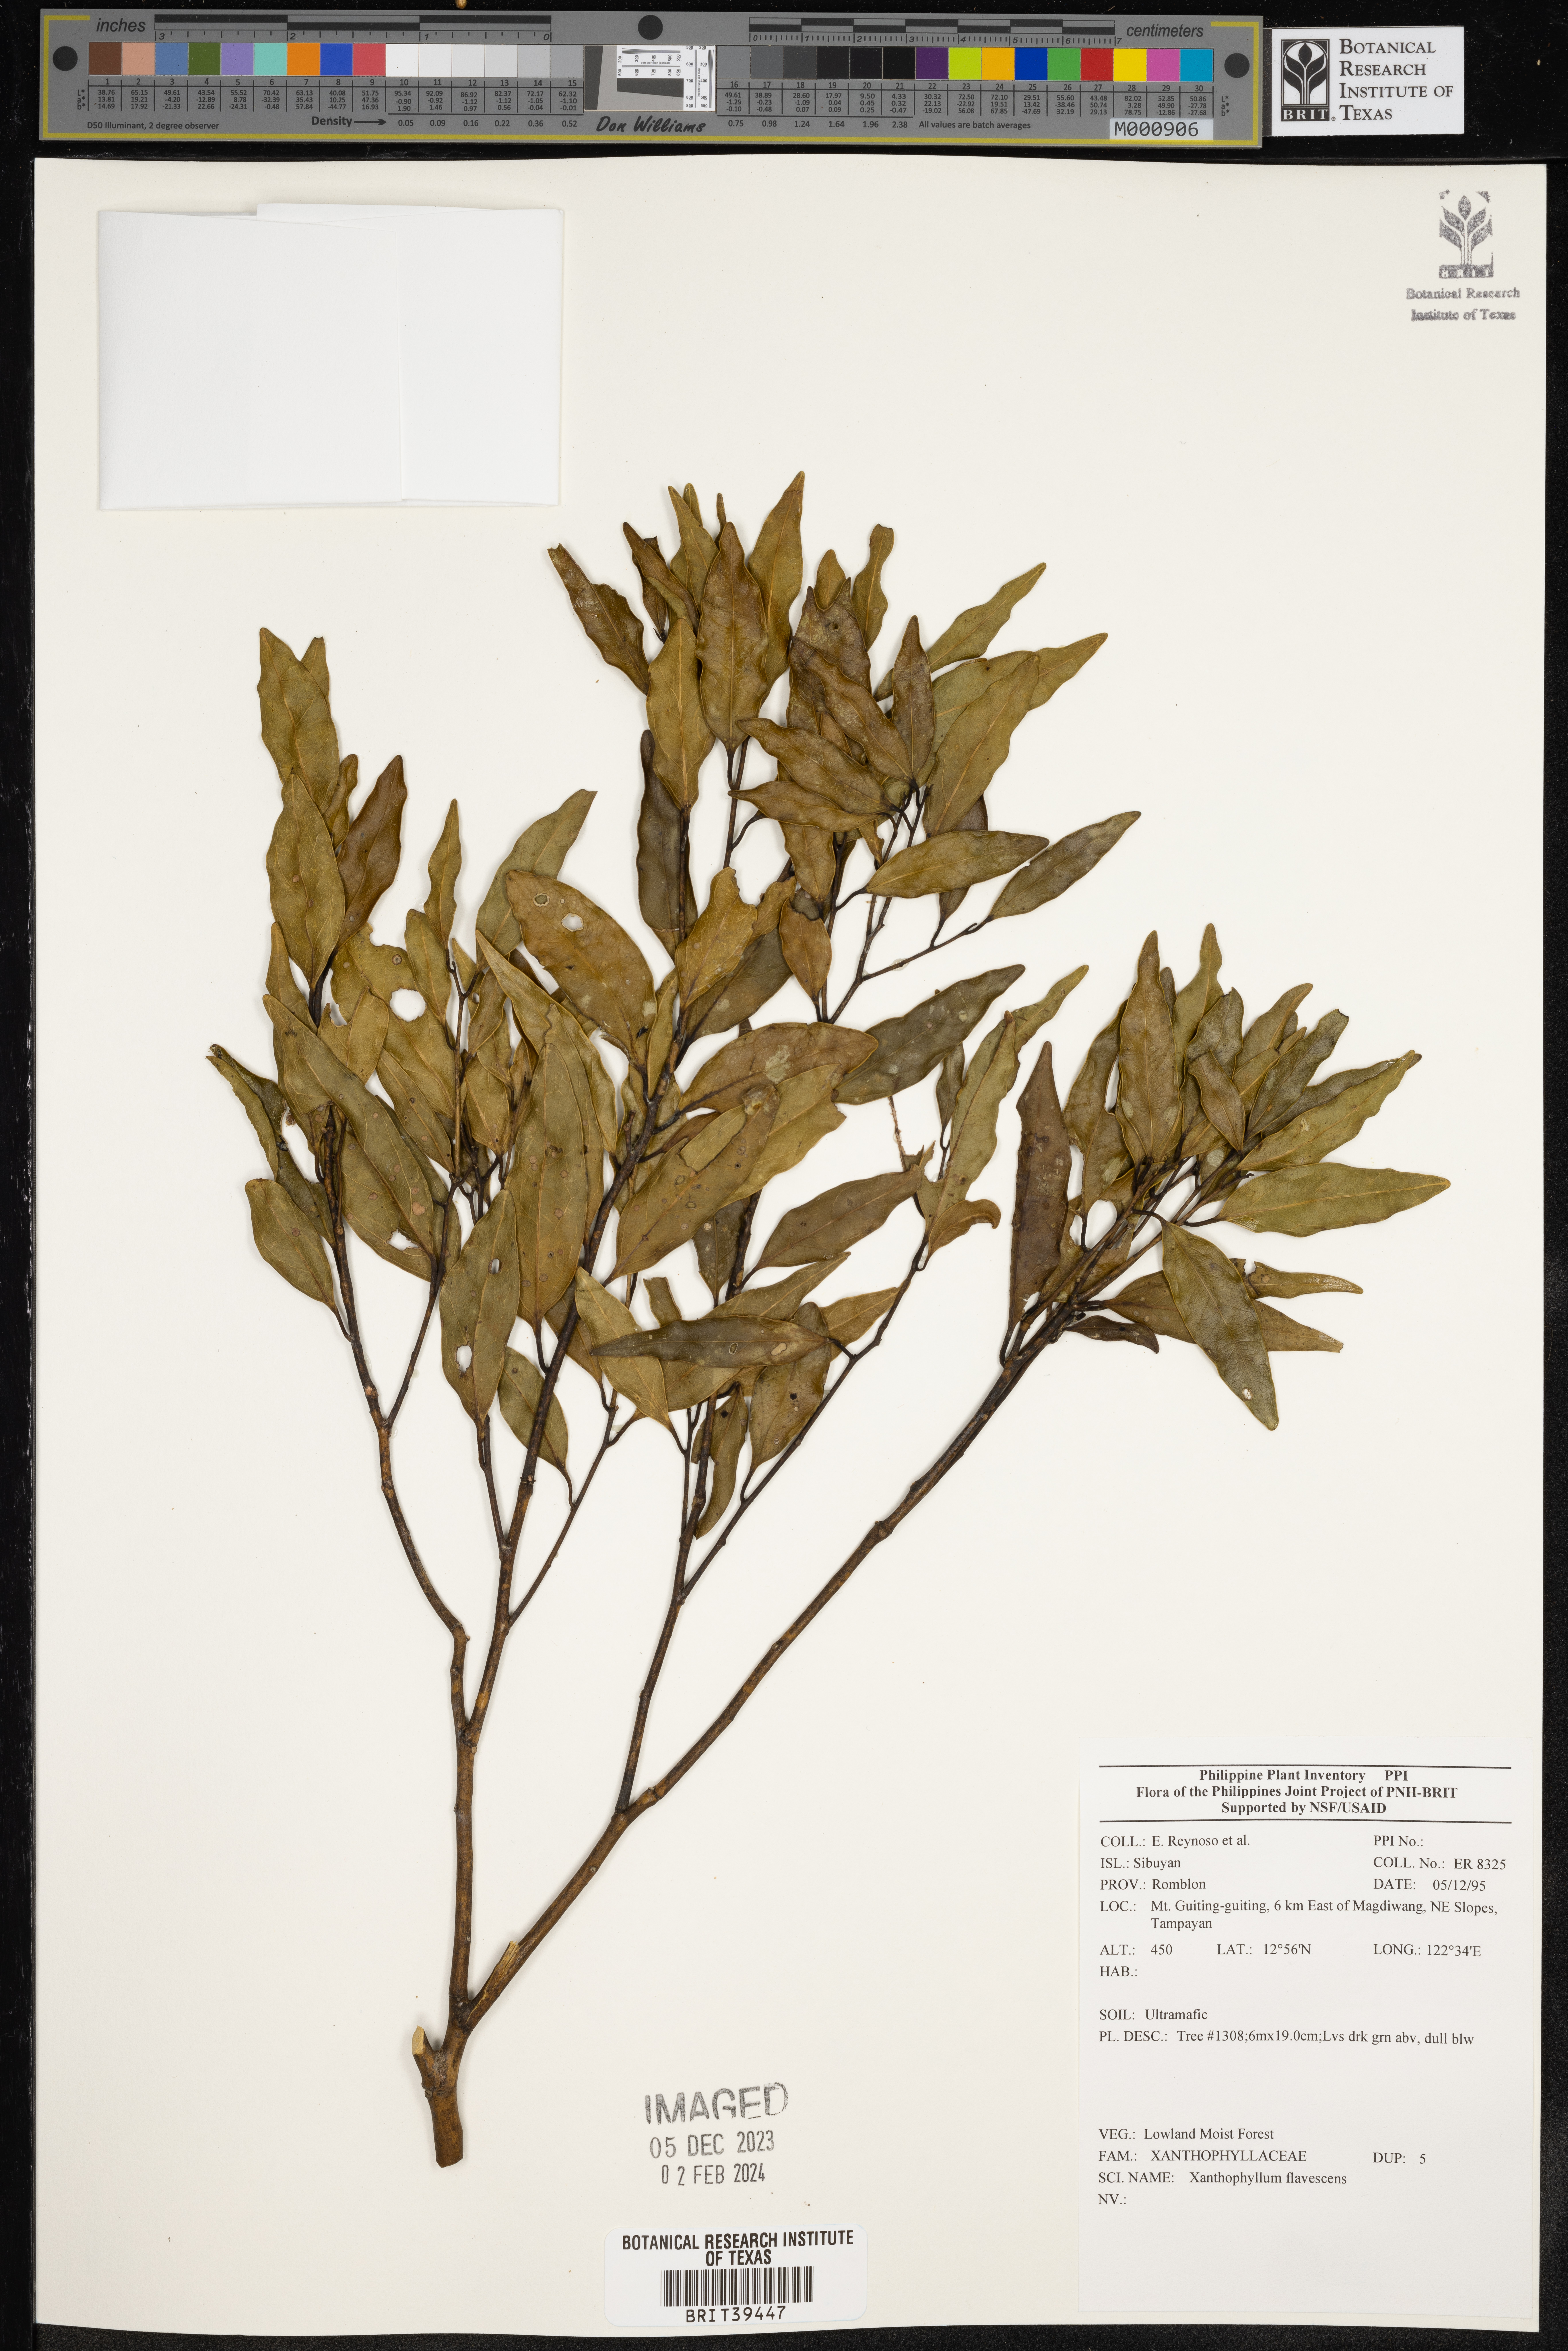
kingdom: Plantae
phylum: Tracheophyta
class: Magnoliopsida
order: Fabales
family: Polygalaceae
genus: Xanthophyllum
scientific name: Xanthophyllum flavescens
